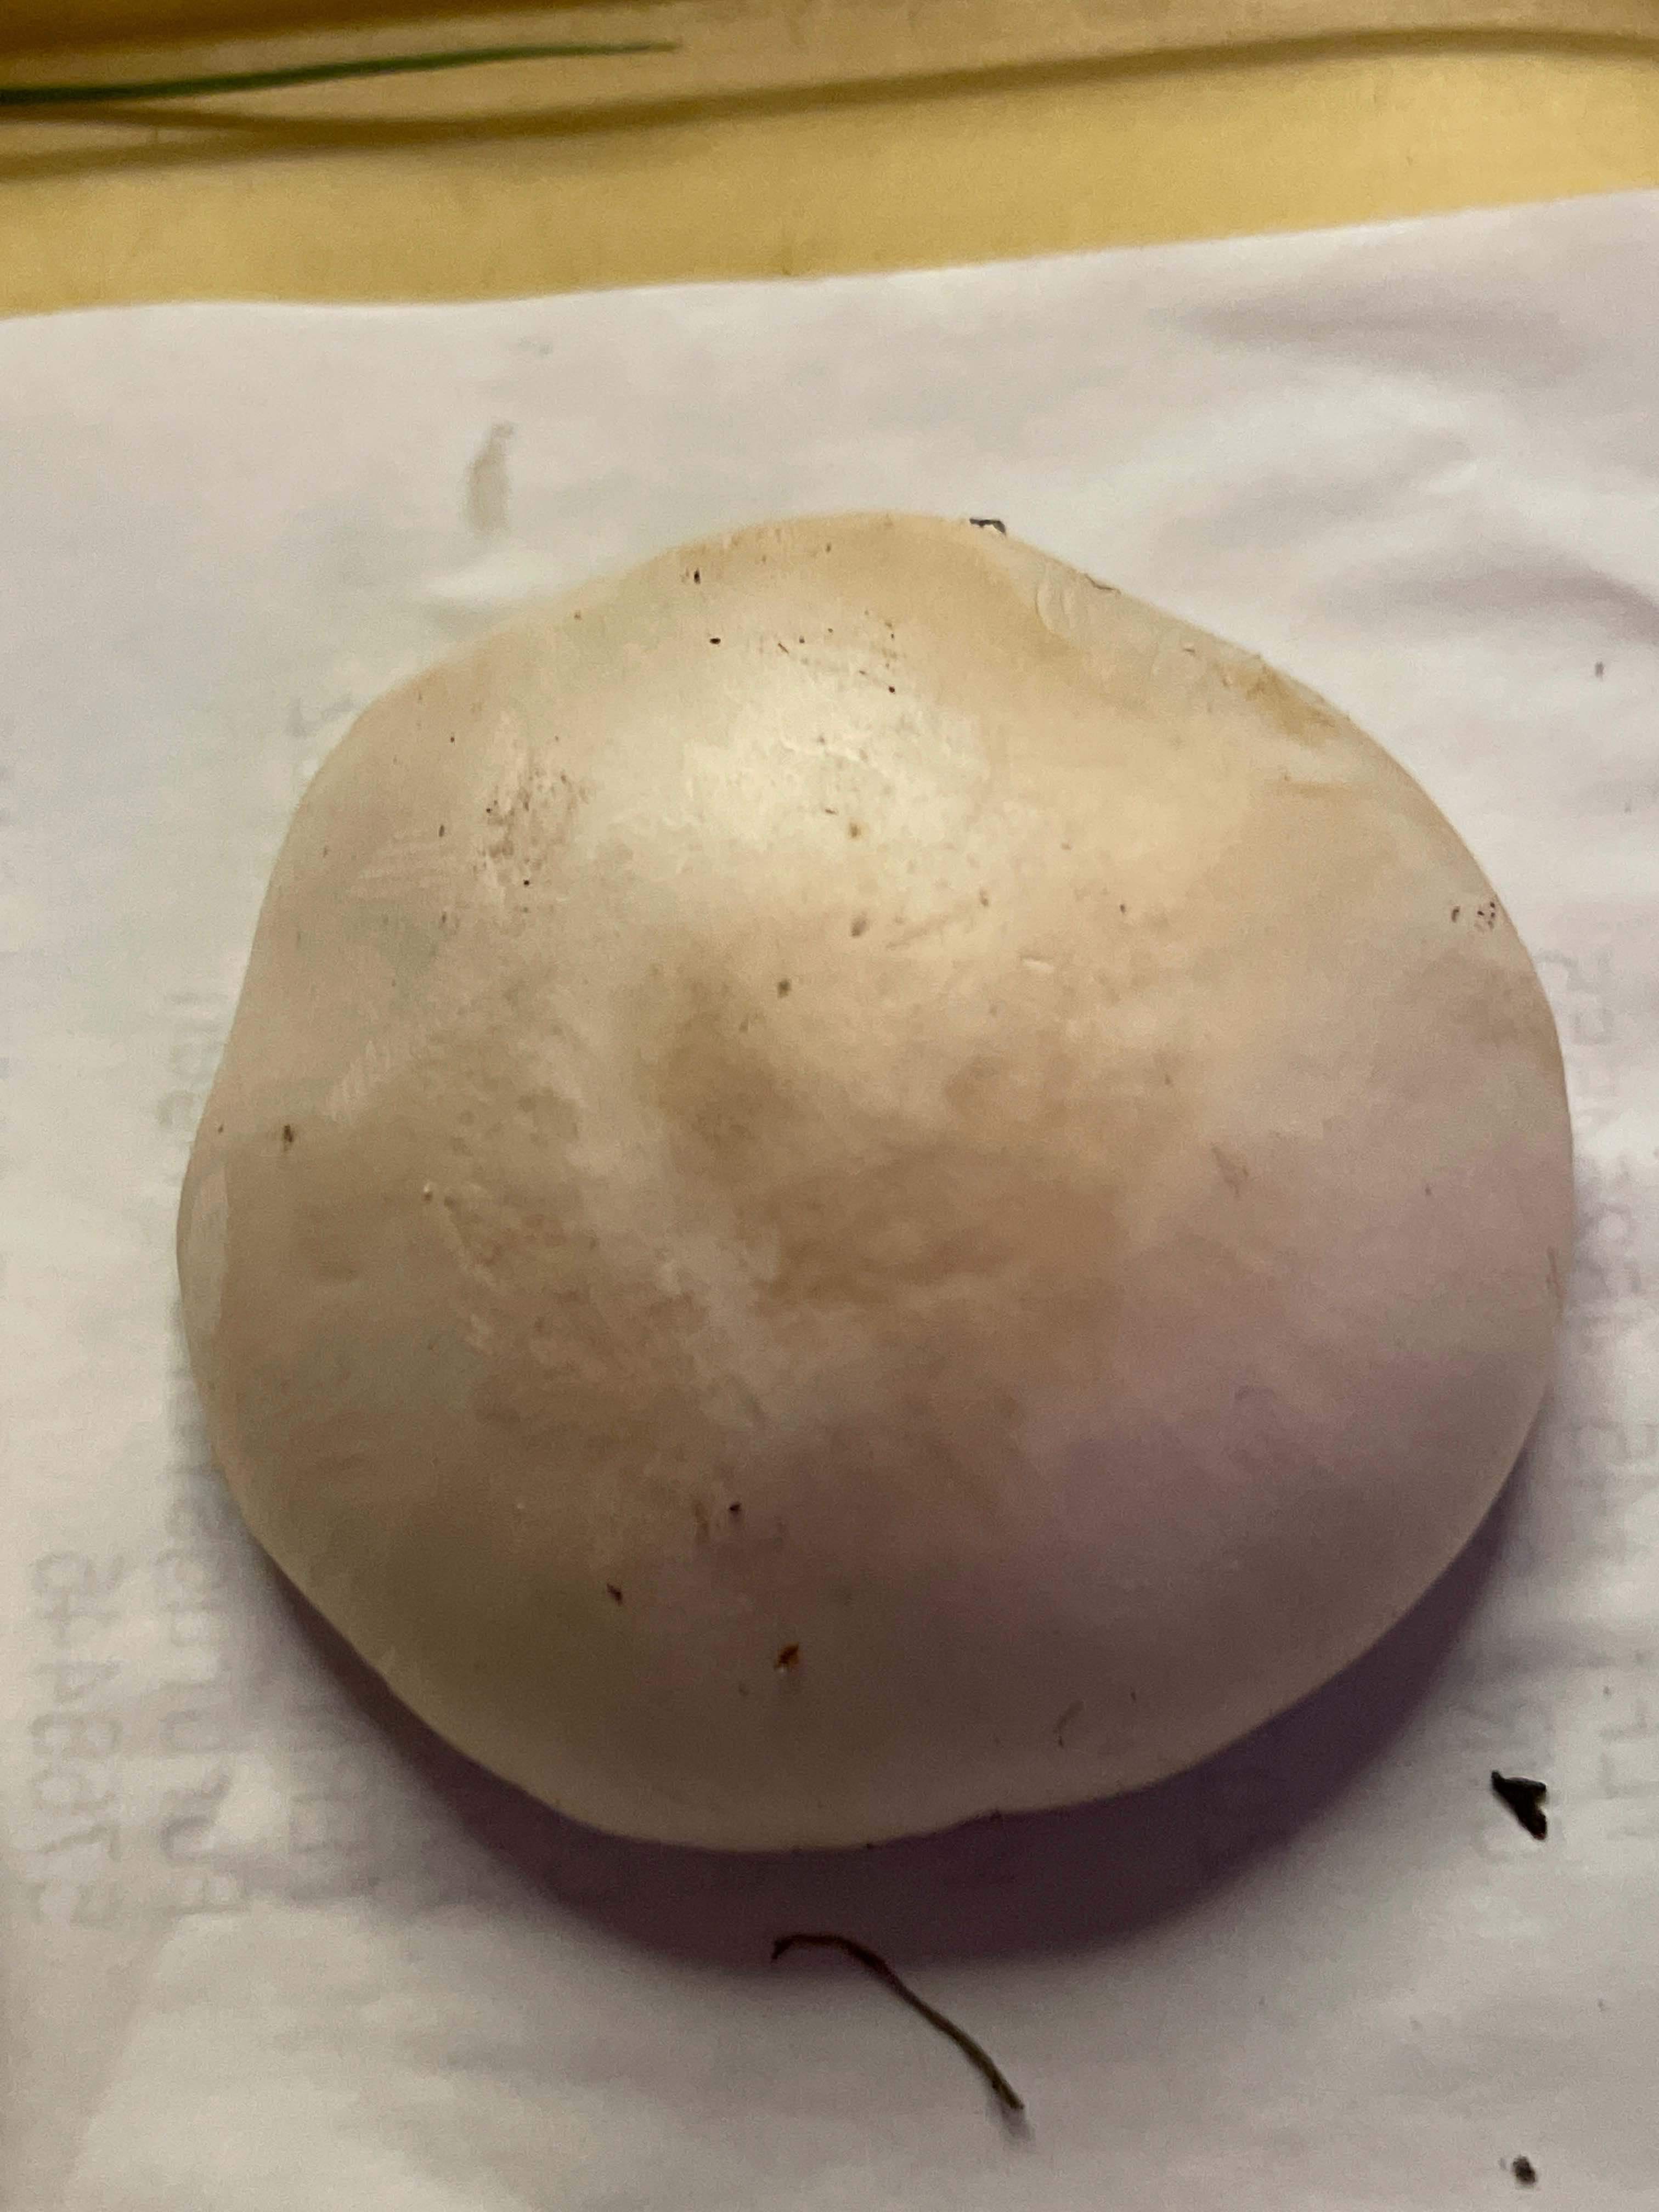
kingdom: Fungi
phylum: Basidiomycota
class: Agaricomycetes
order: Agaricales
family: Agaricaceae
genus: Leucoagaricus
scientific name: Leucoagaricus leucothites
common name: rosabladet silkehat
